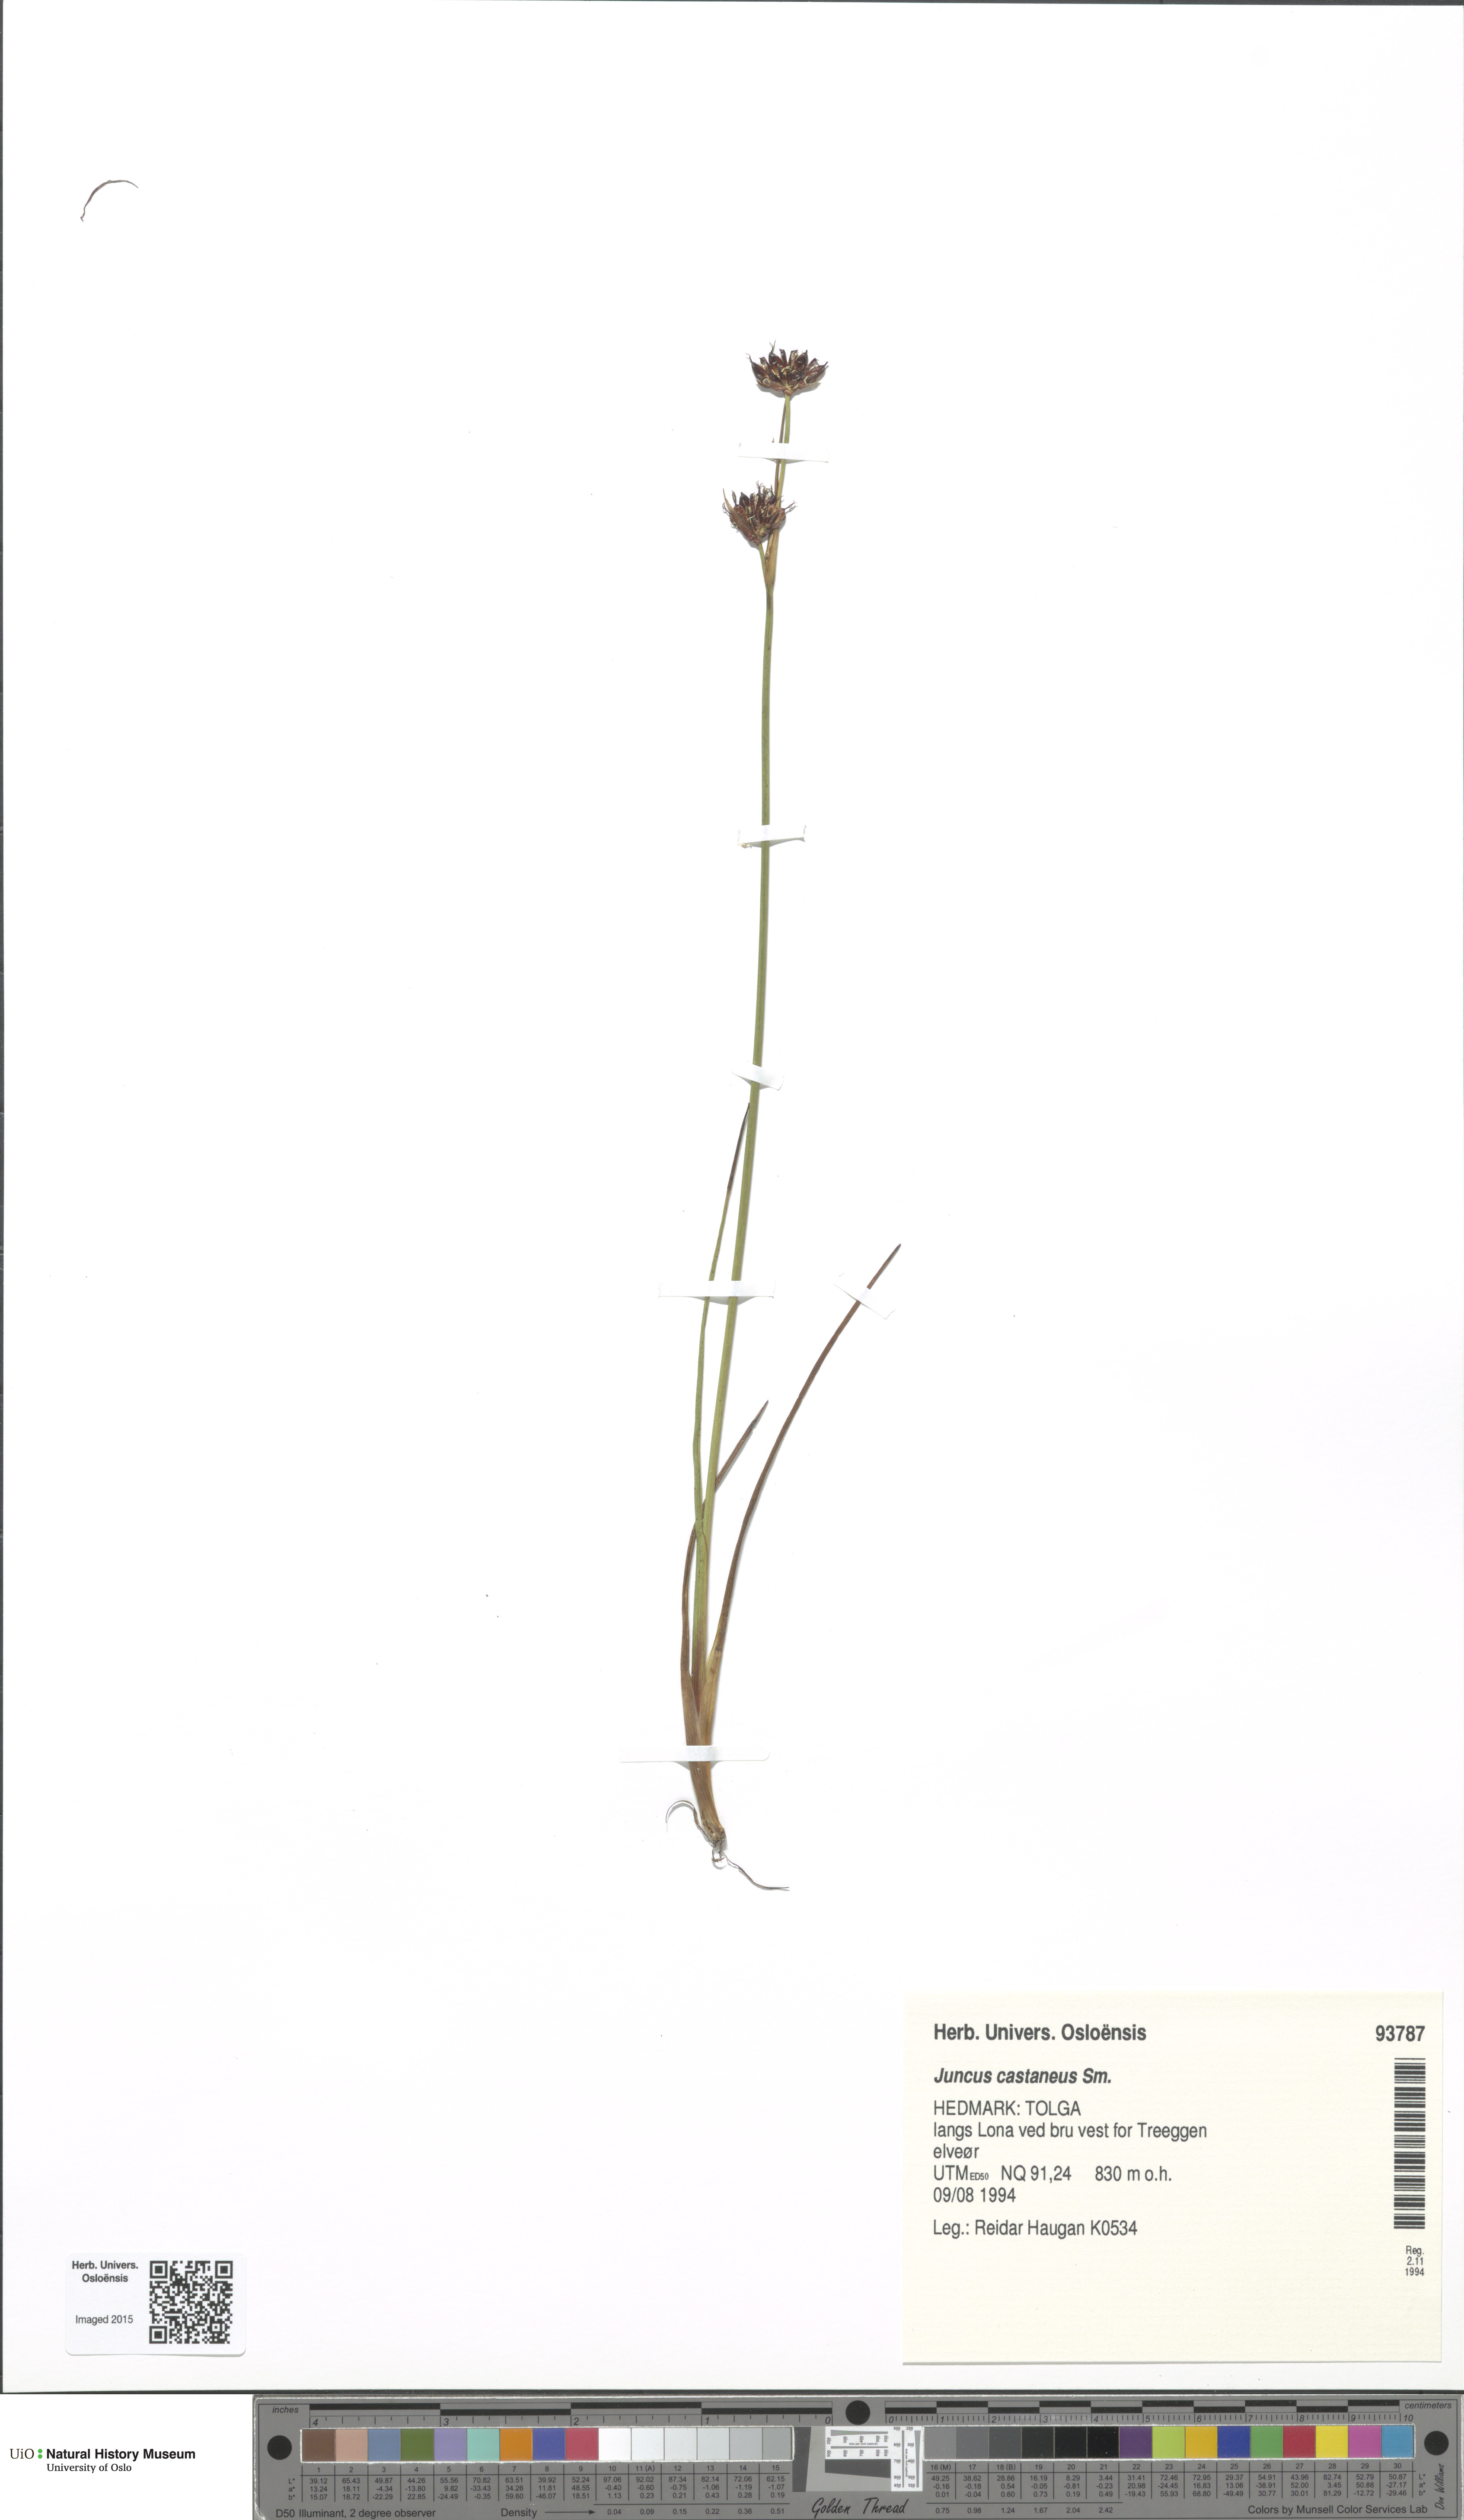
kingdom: Plantae
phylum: Tracheophyta
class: Liliopsida
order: Poales
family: Juncaceae
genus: Juncus
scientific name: Juncus castaneus
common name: Chestnut rush
